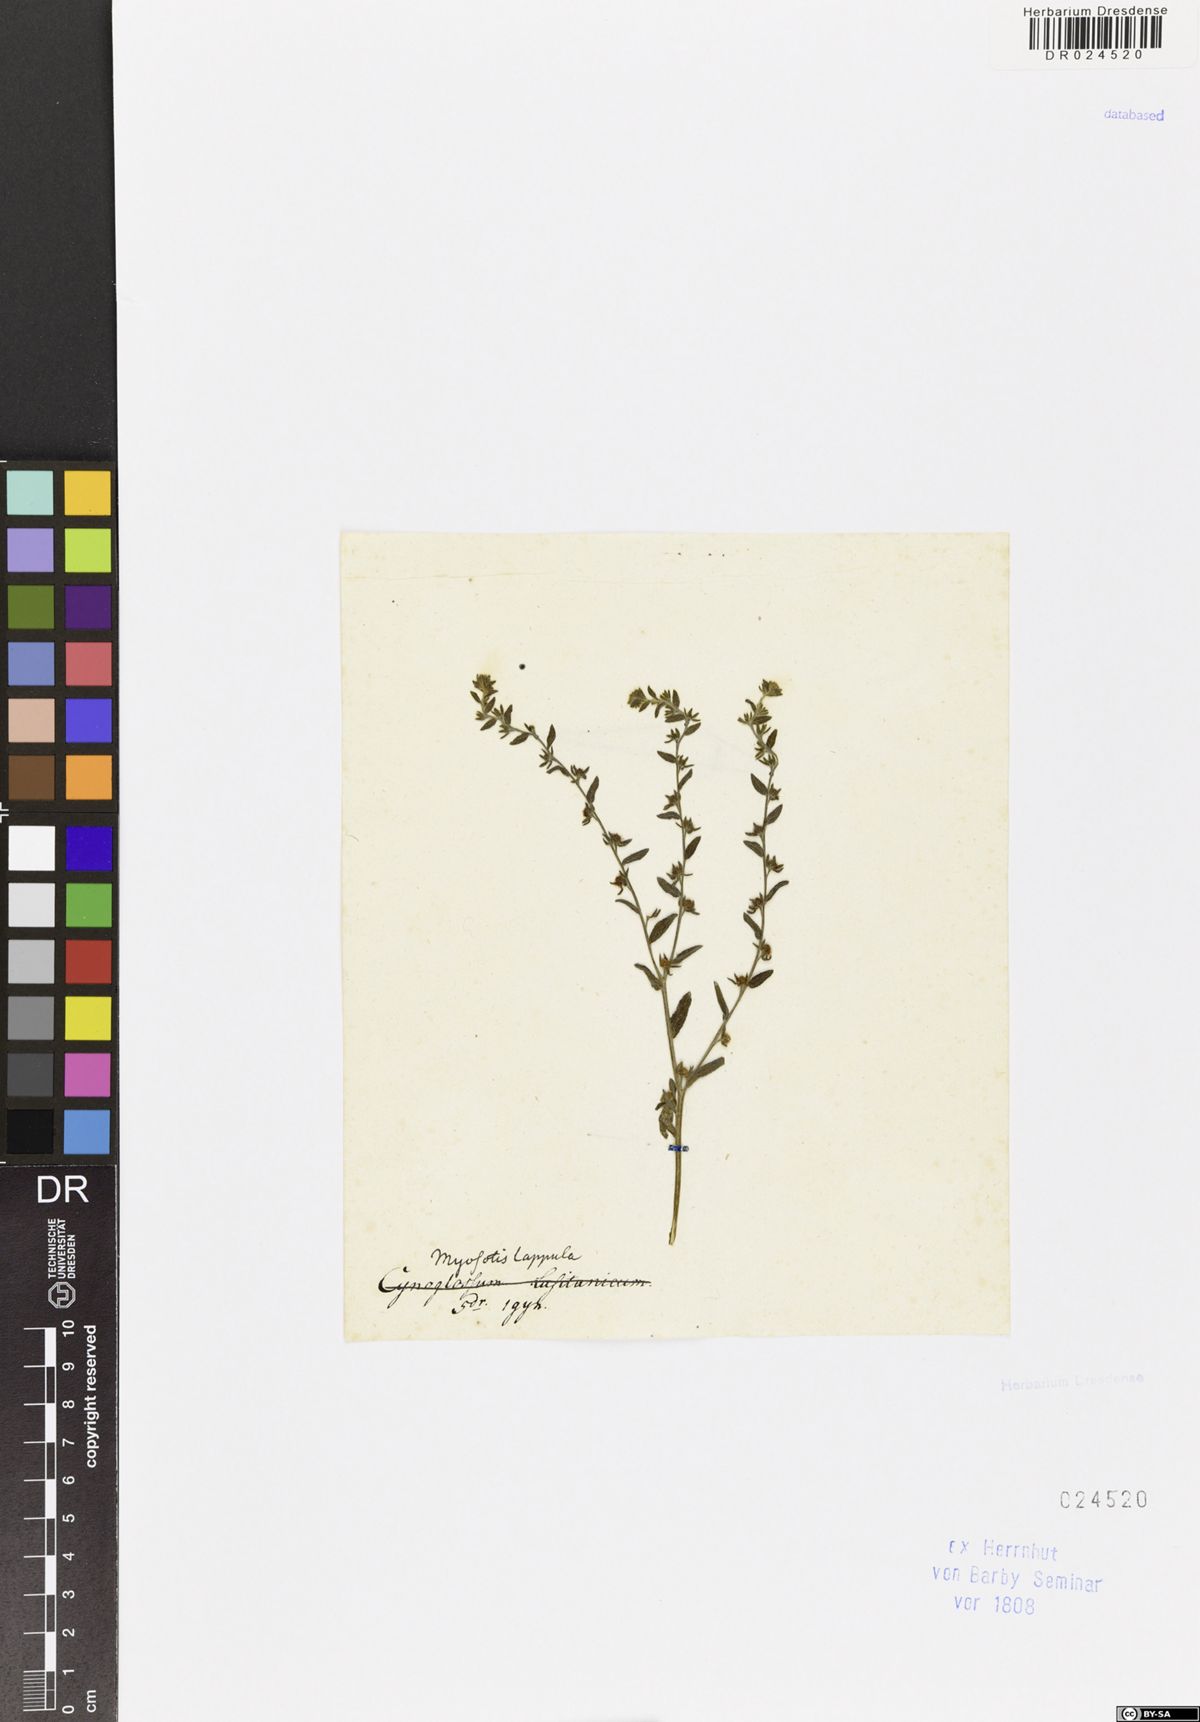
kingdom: Plantae
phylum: Tracheophyta
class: Magnoliopsida
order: Boraginales
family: Boraginaceae
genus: Lappula
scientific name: Lappula squarrosa
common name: European stickseed
